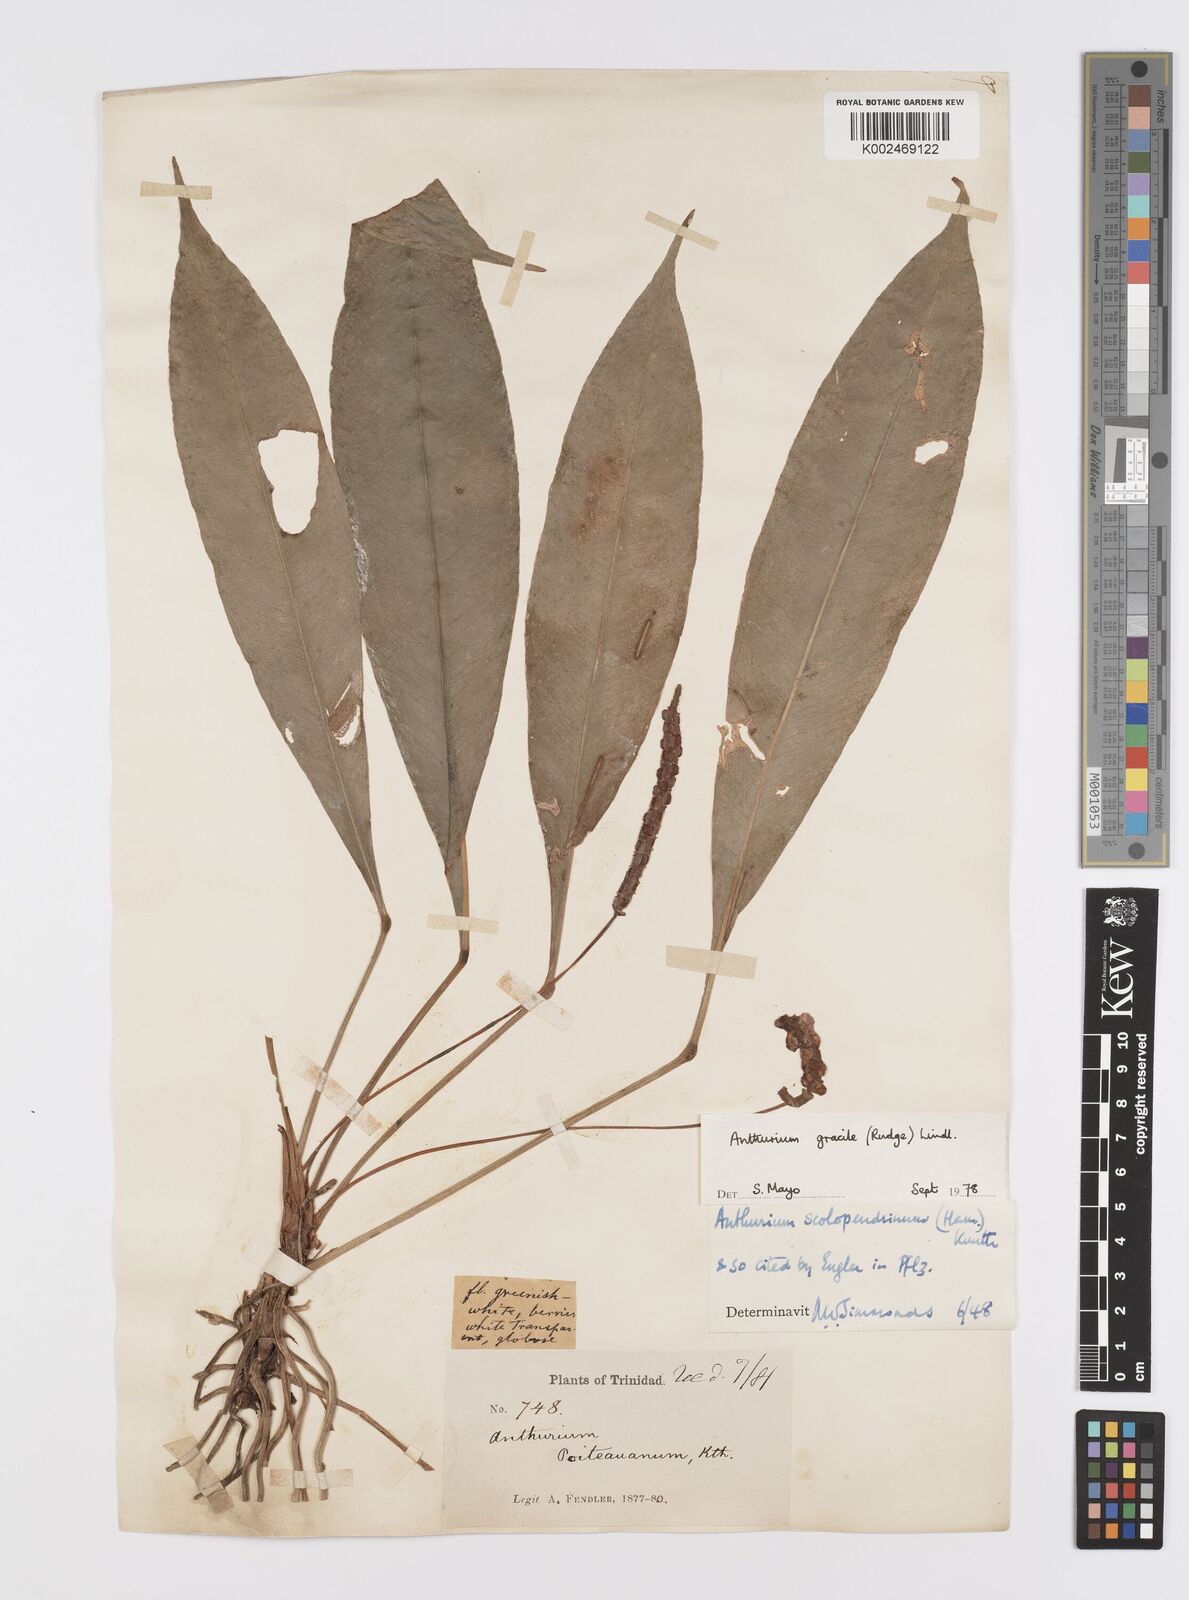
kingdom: Plantae
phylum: Tracheophyta
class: Liliopsida
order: Alismatales
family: Araceae
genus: Anthurium
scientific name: Anthurium gracile
